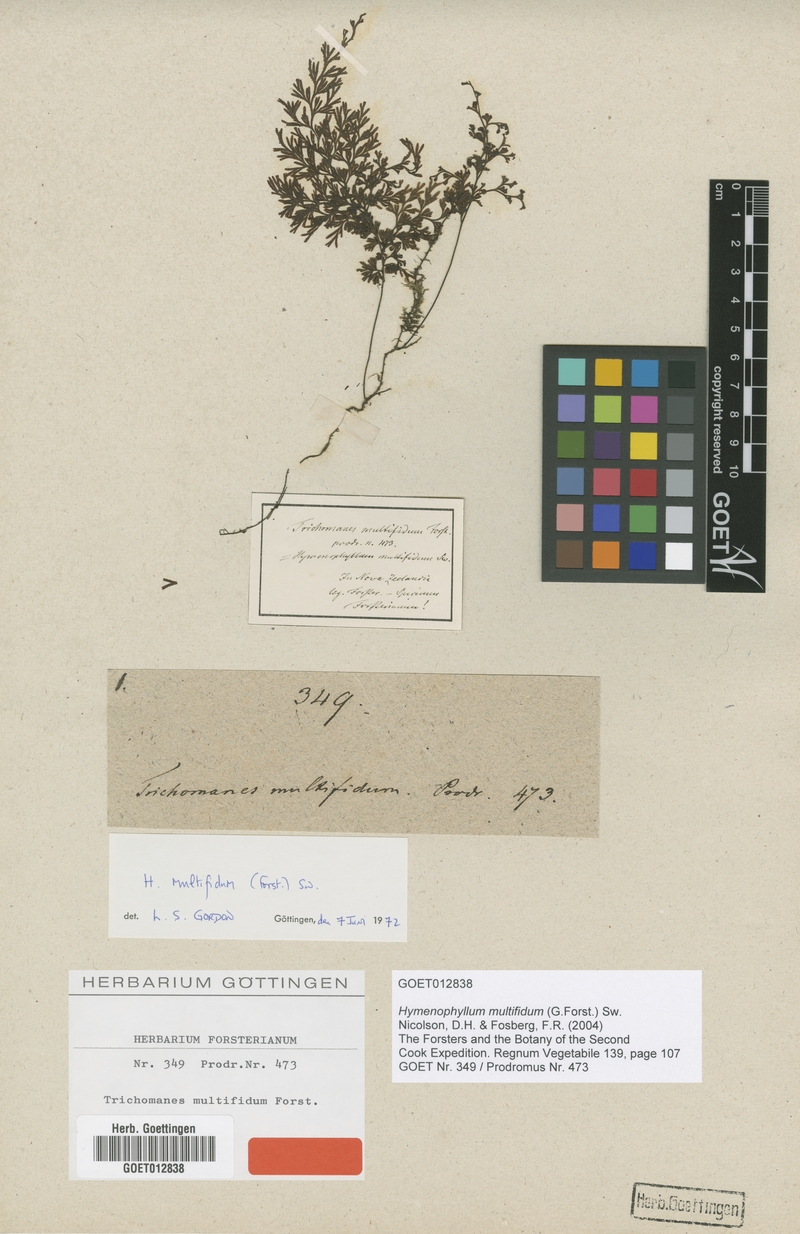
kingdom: Plantae
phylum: Tracheophyta
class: Polypodiopsida
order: Hymenophyllales
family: Hymenophyllaceae
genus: Hymenophyllum
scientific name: Hymenophyllum multifidum
